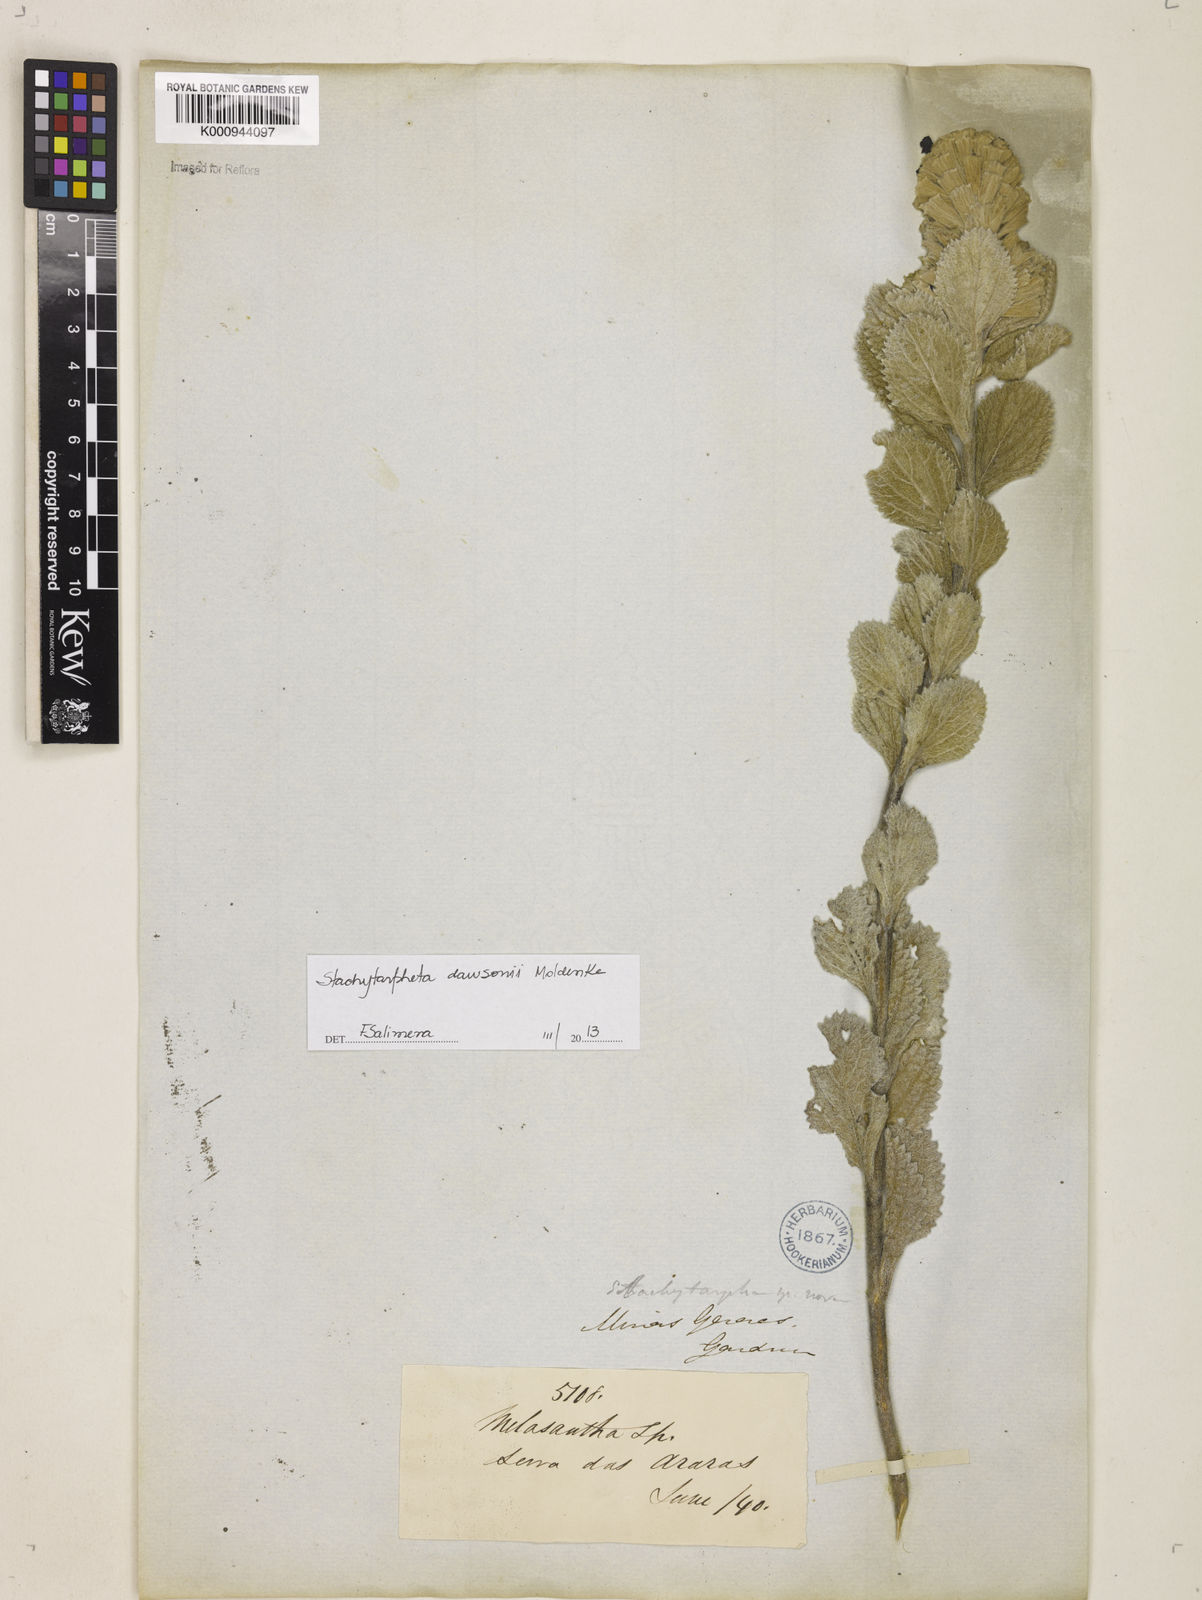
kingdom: Plantae
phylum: Tracheophyta
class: Magnoliopsida
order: Lamiales
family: Verbenaceae
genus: Stachytarpheta
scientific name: Stachytarpheta mollis
